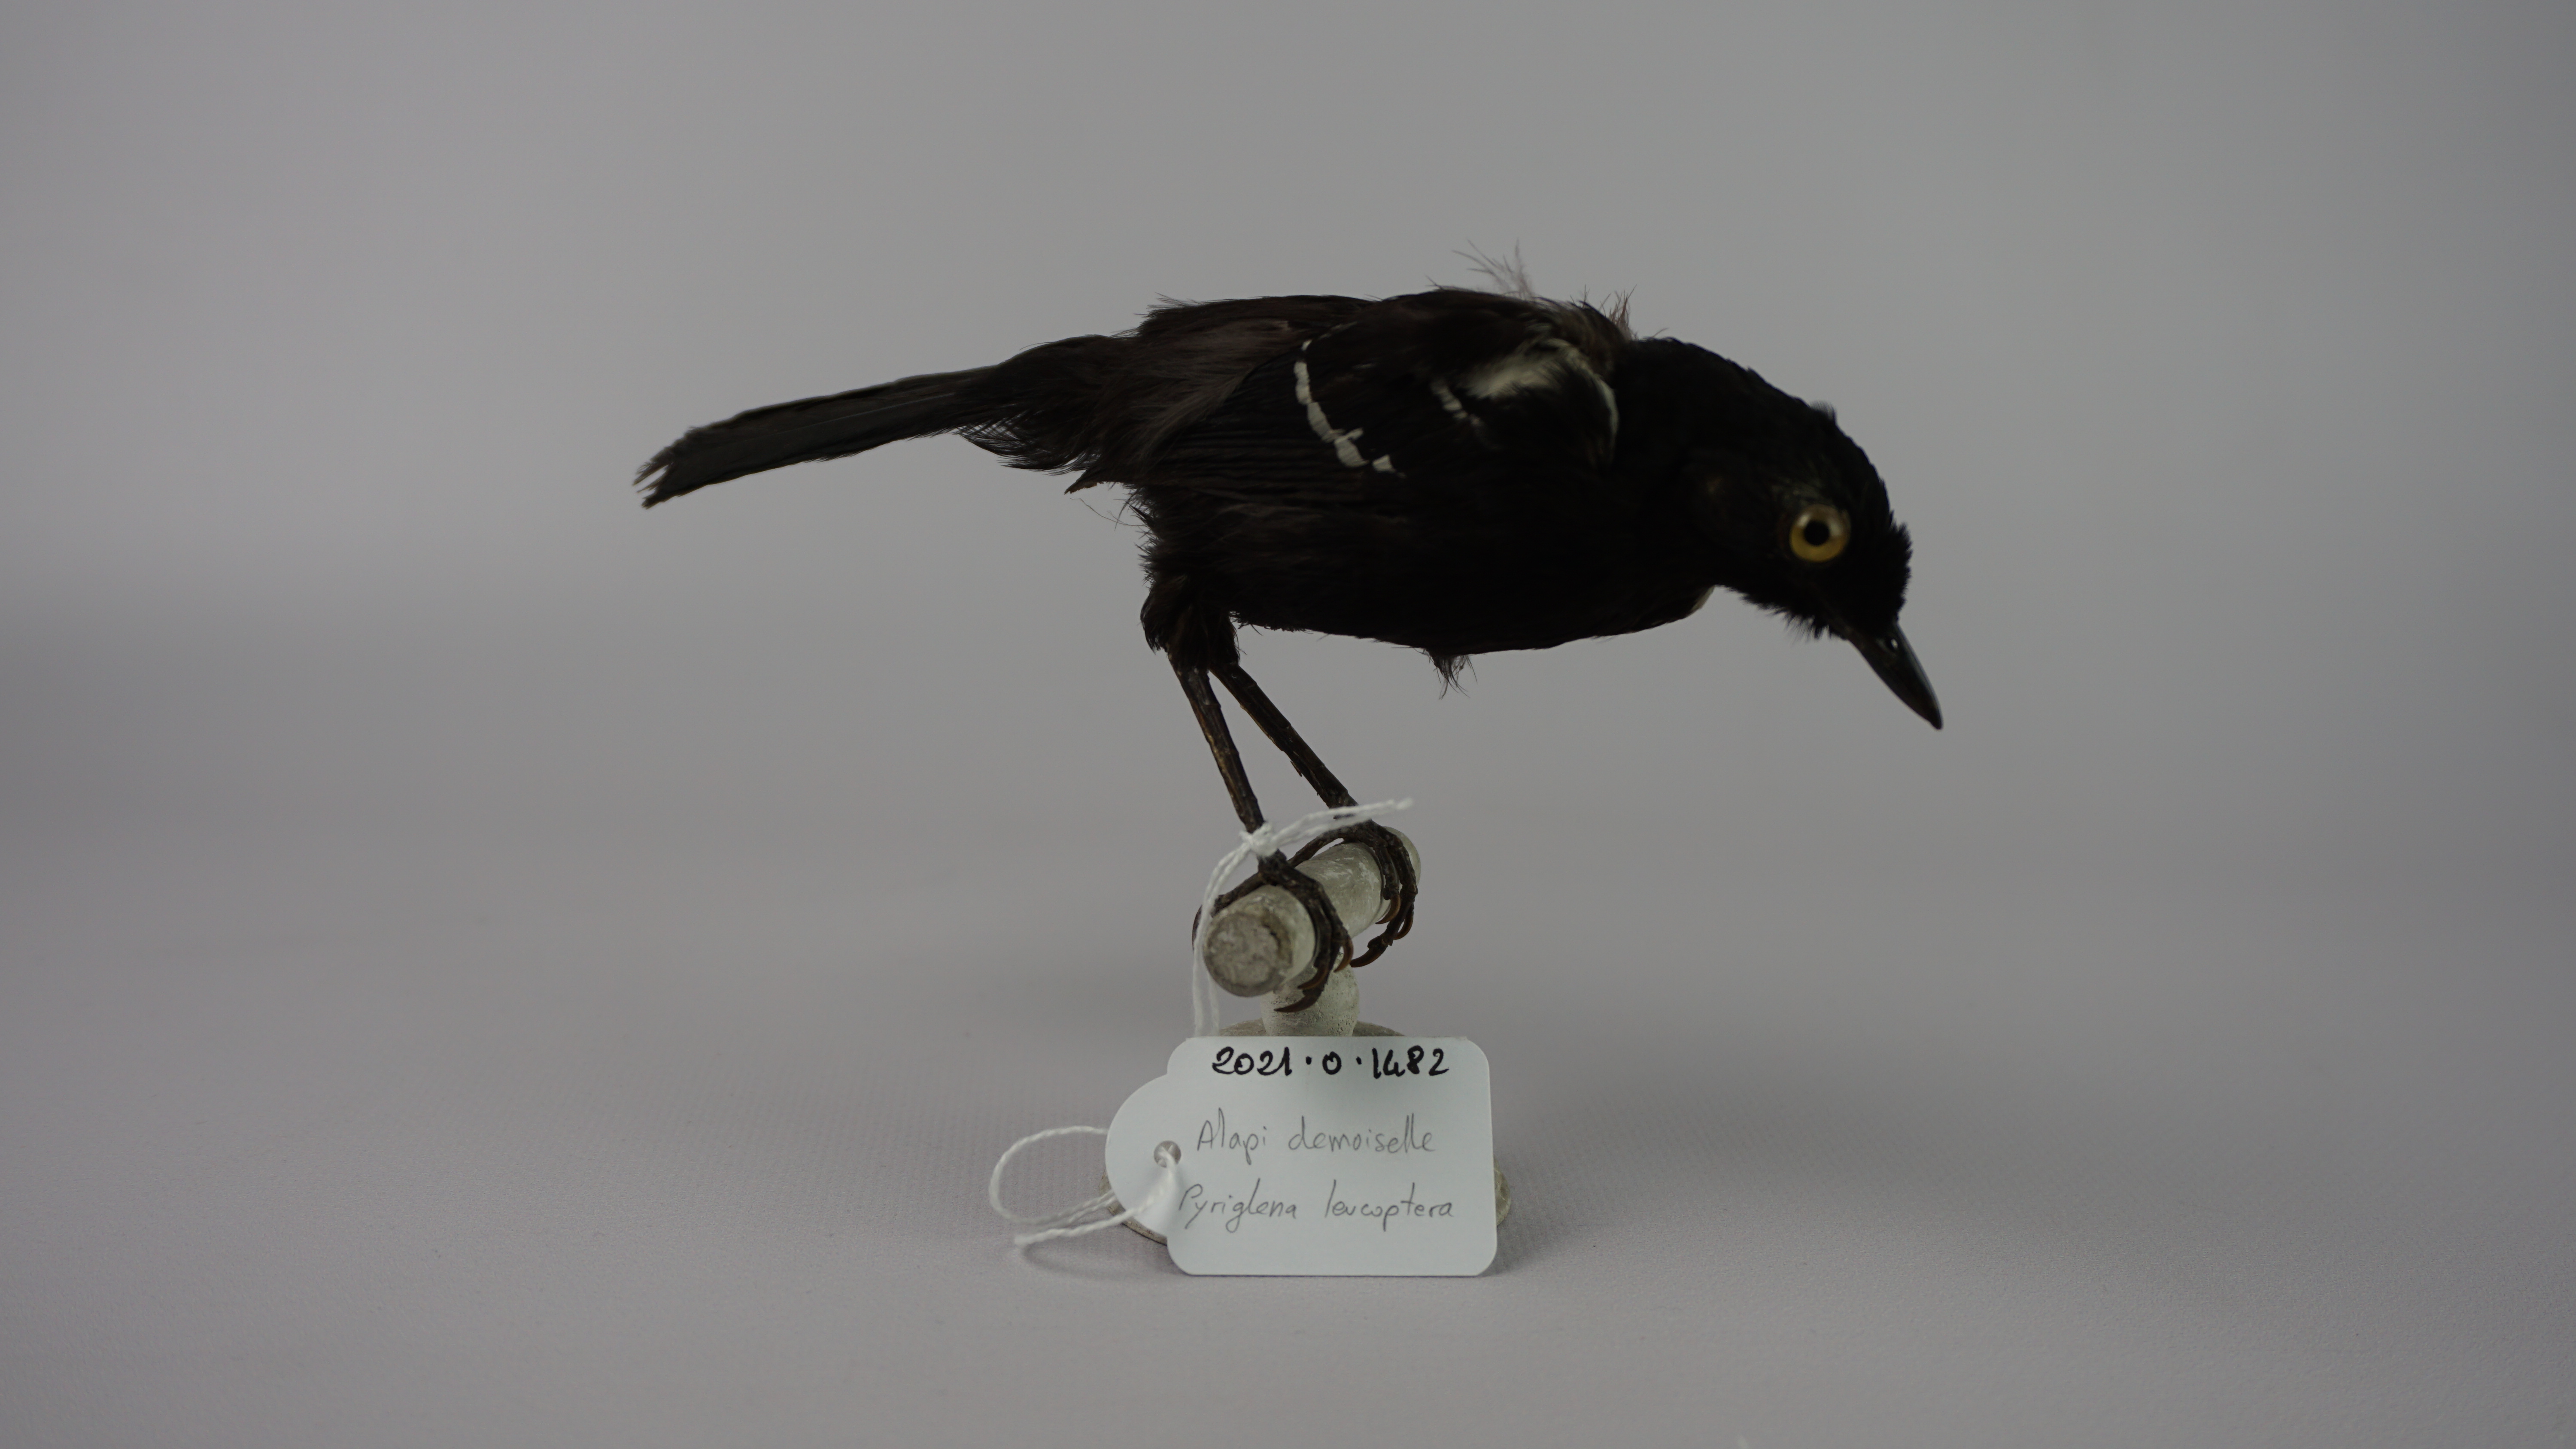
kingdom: Animalia
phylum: Chordata
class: Aves
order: Passeriformes
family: Thamnophilidae
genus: Pyriglena
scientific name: Pyriglena leucoptera
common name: White-shouldered fire-eye
